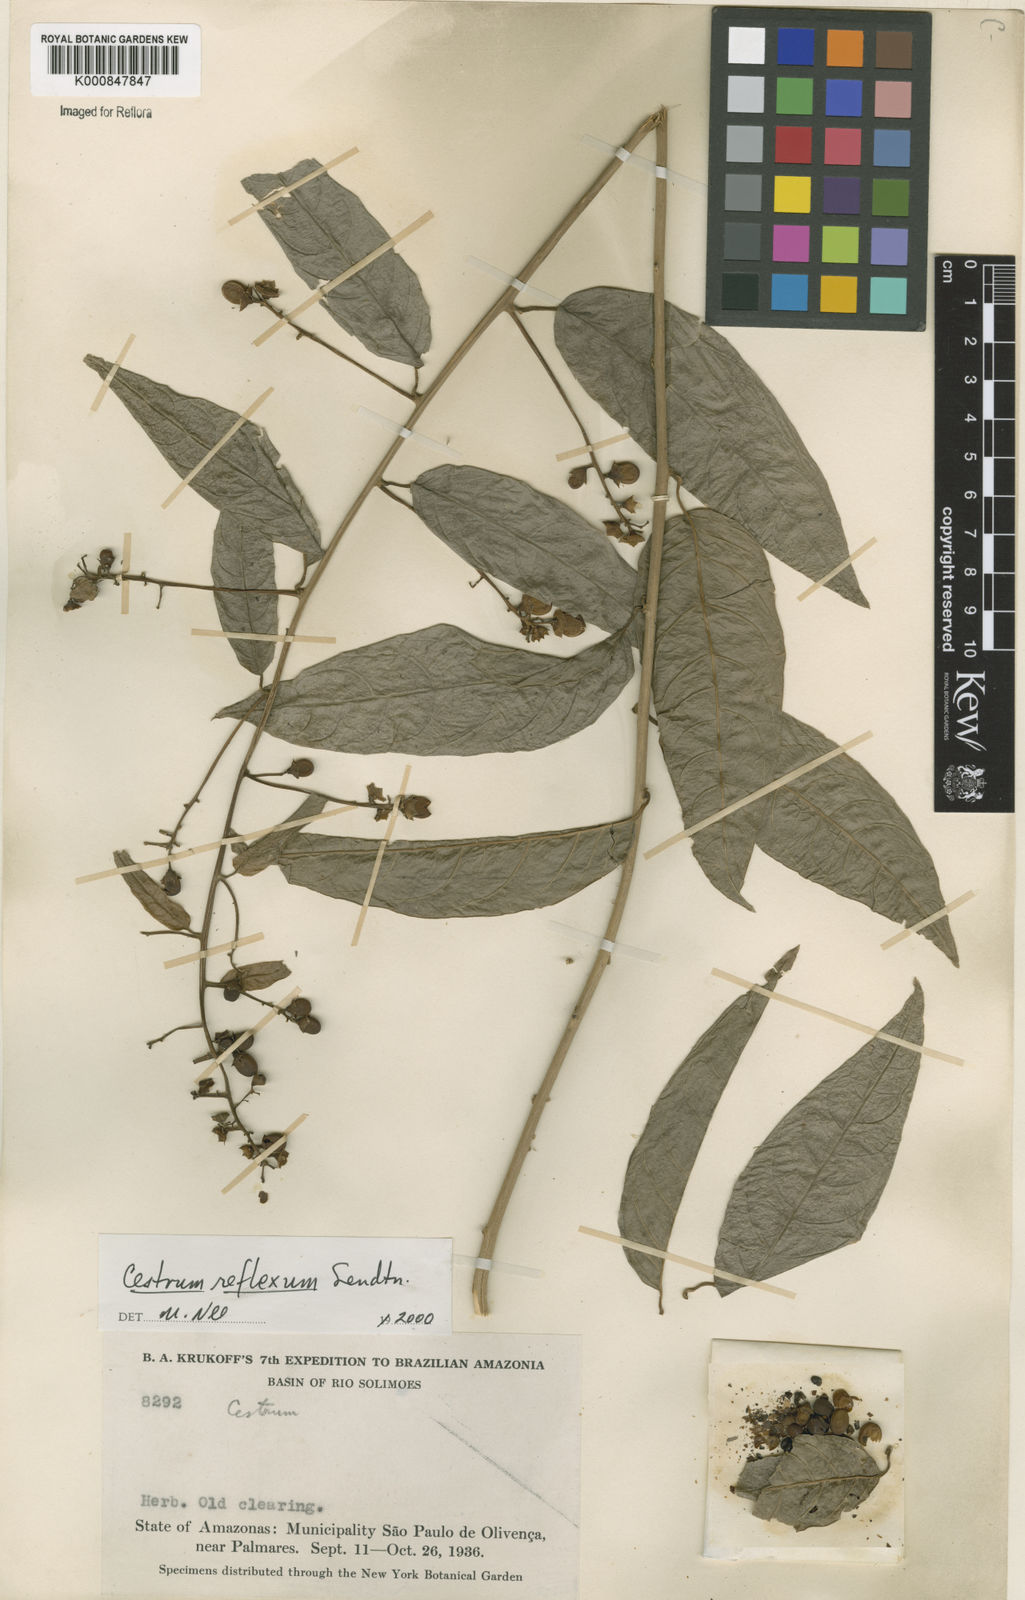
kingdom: Plantae
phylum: Tracheophyta
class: Magnoliopsida
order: Solanales
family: Solanaceae
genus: Cestrum
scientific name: Cestrum reflexum
